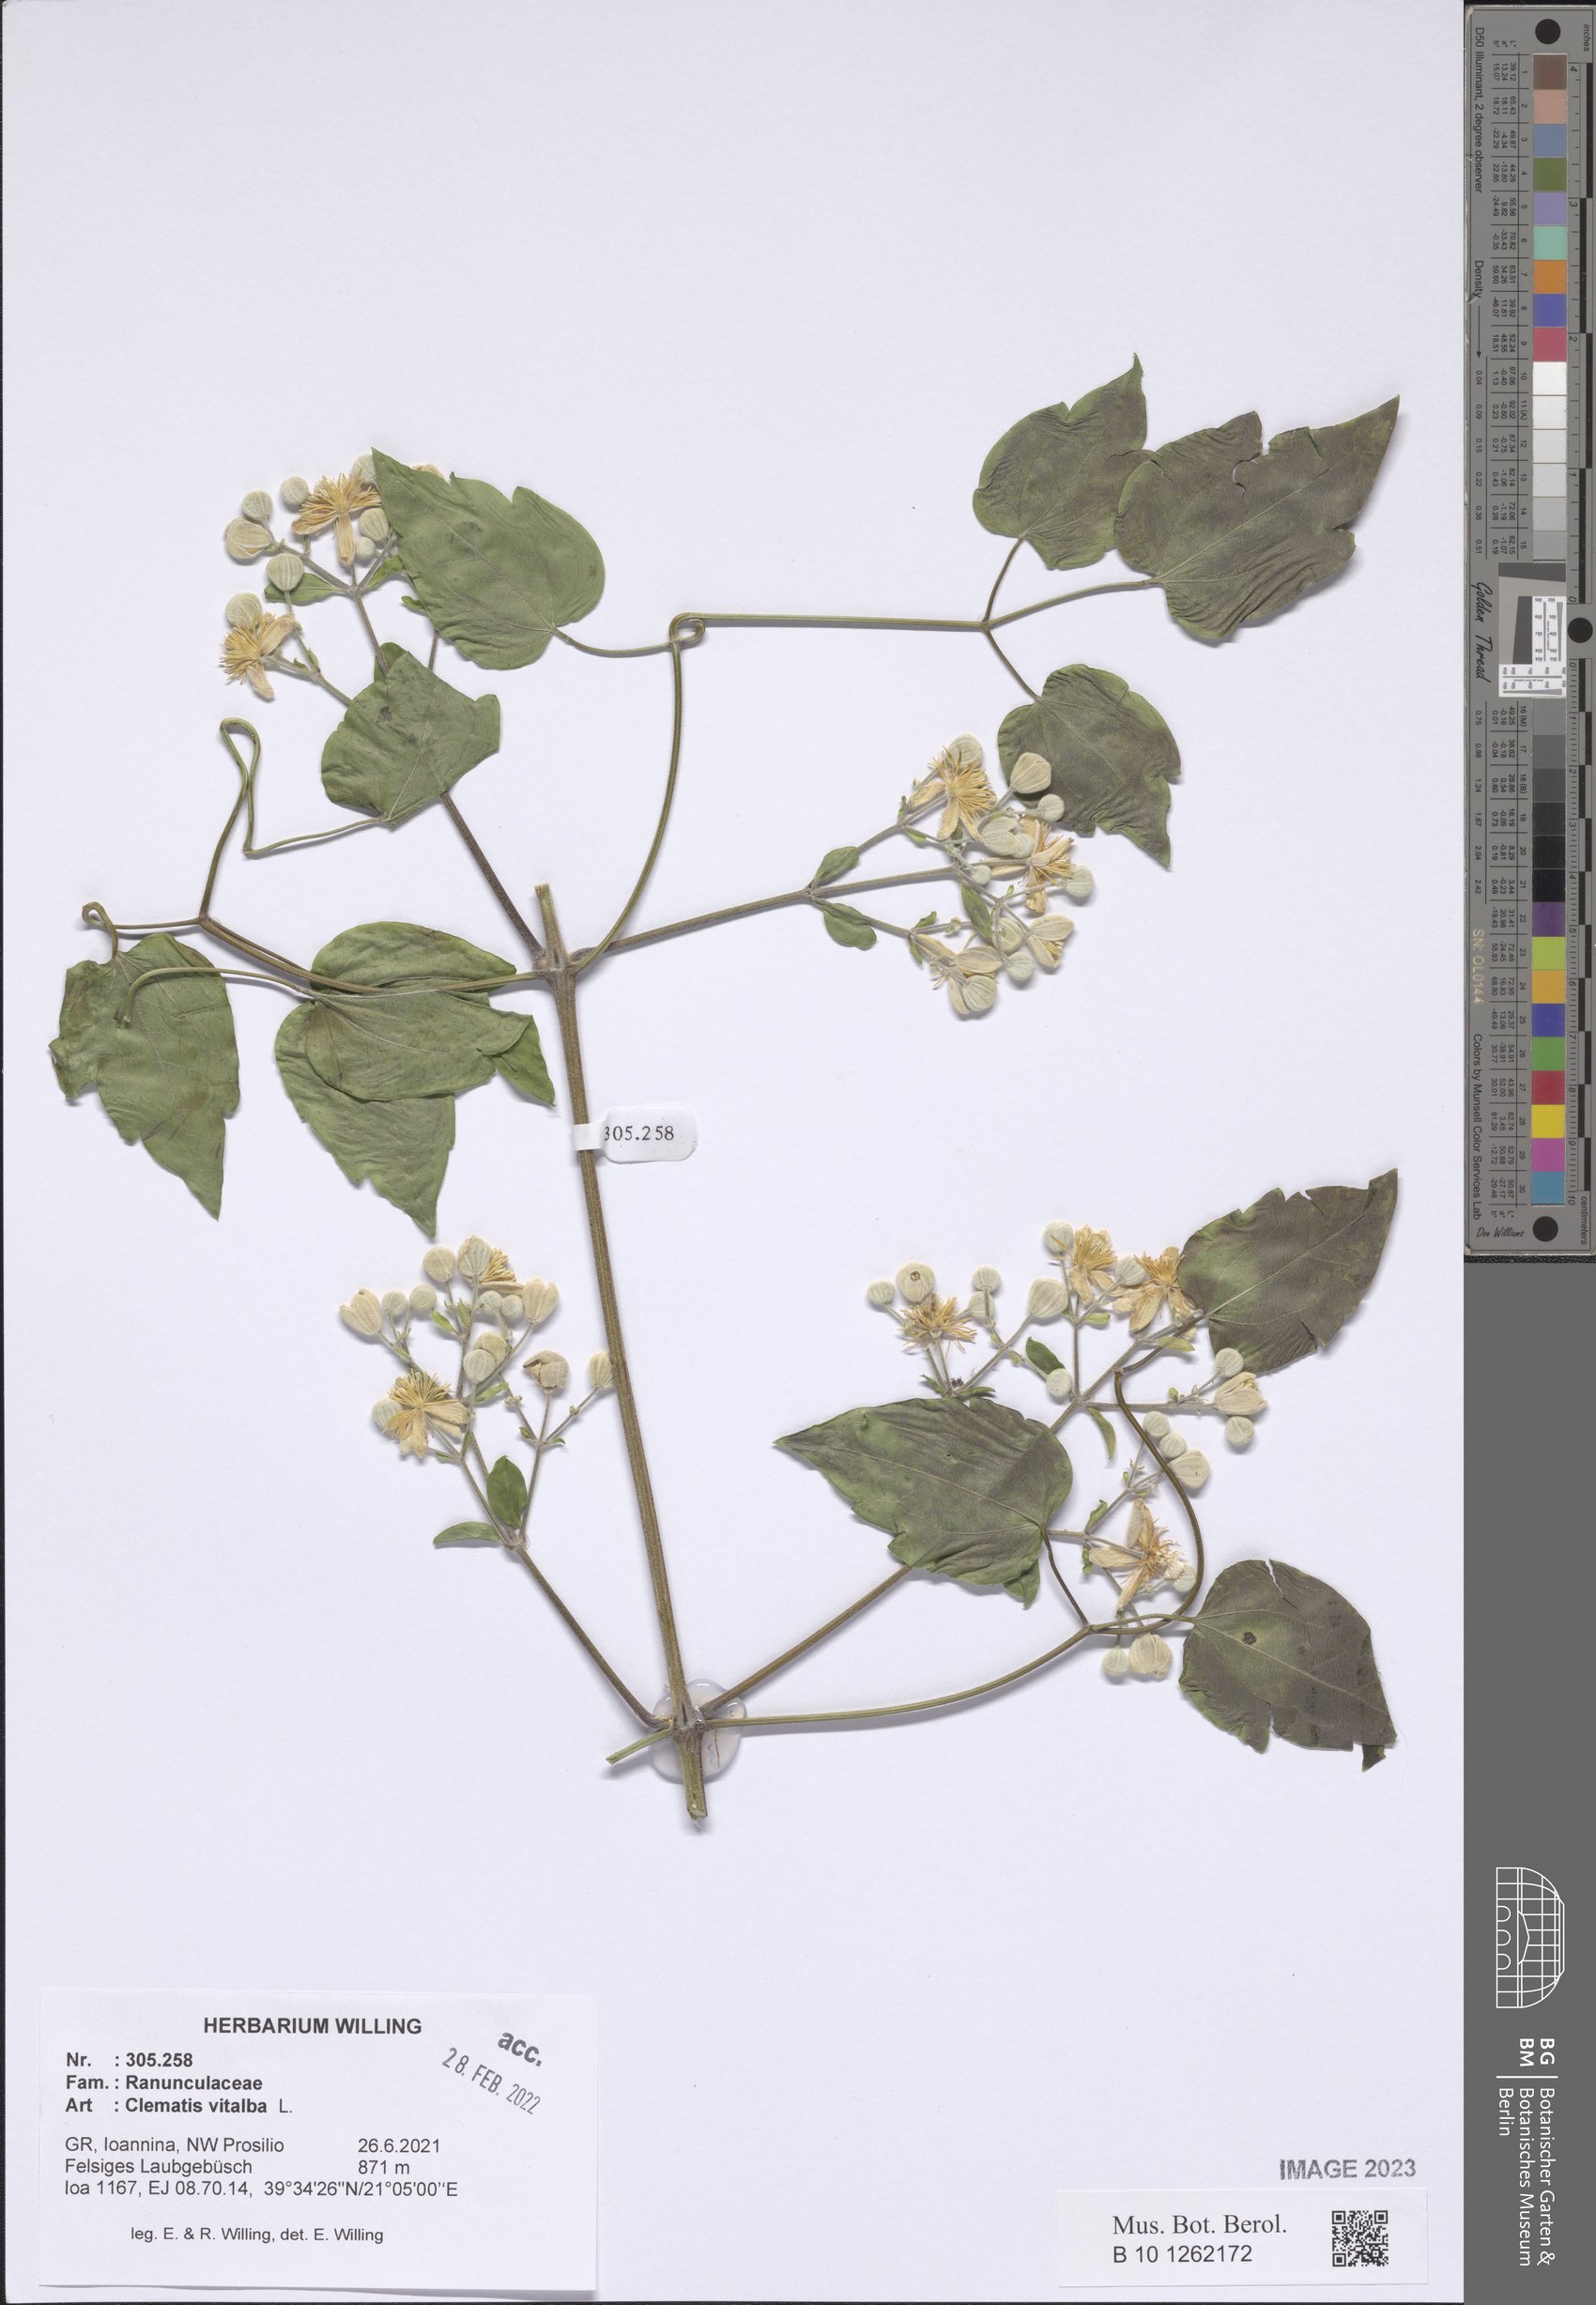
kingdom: Plantae
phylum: Tracheophyta
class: Magnoliopsida
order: Ranunculales
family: Ranunculaceae
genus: Clematis
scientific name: Clematis vitalba
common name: Evergreen clematis
